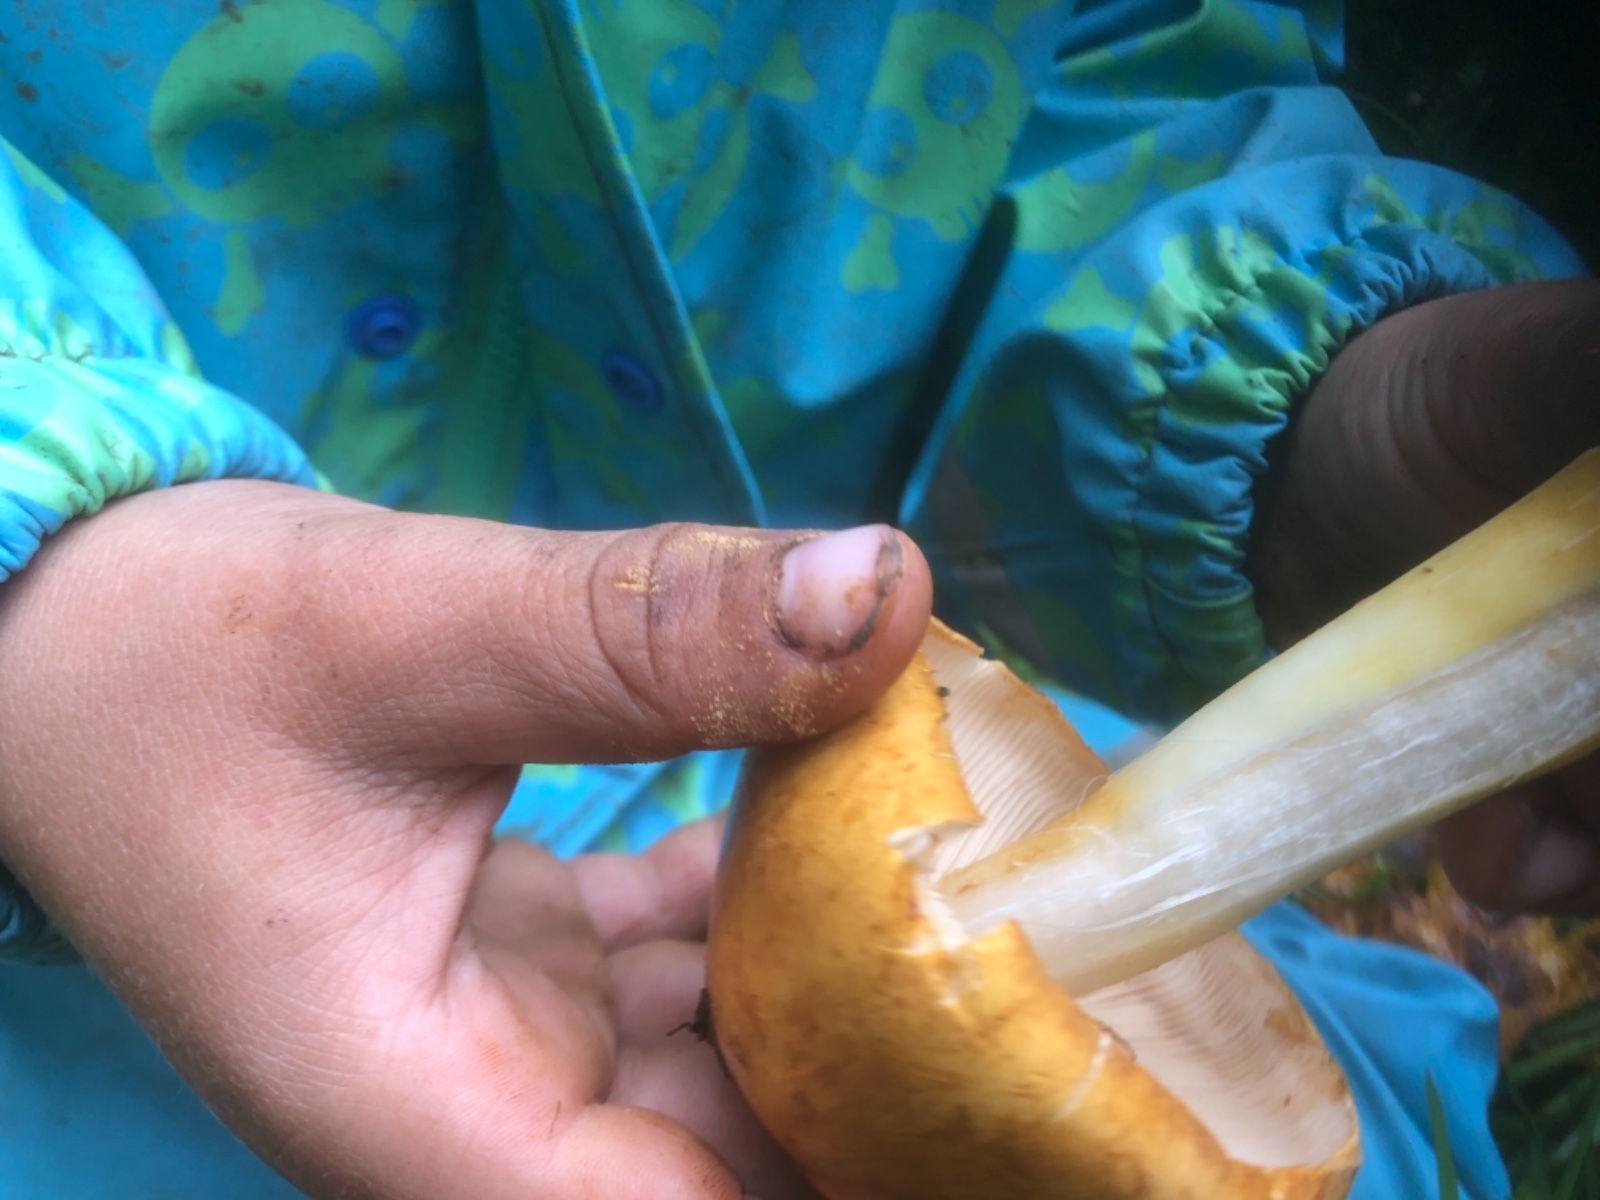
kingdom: Fungi
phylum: Basidiomycota
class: Agaricomycetes
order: Agaricales
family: Tricholomataceae
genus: Phaeolepiota
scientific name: Phaeolepiota
